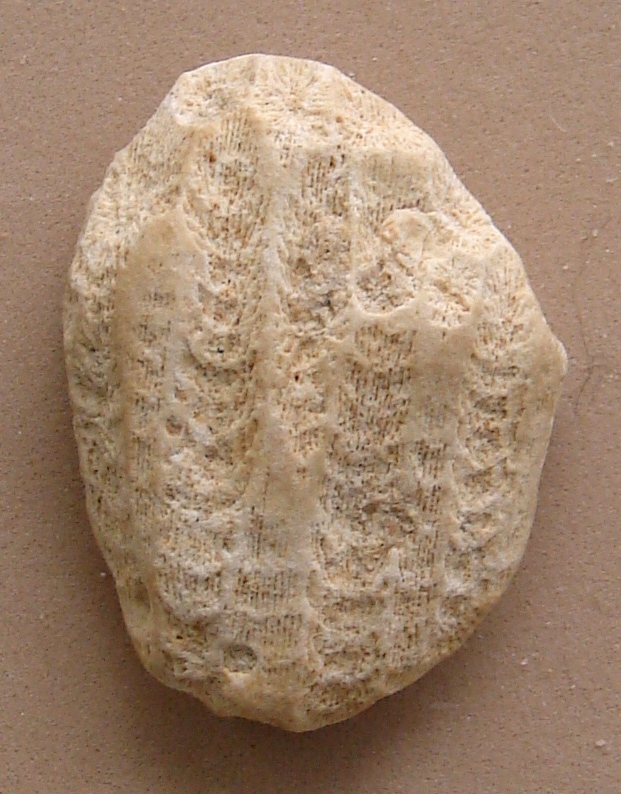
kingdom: Animalia
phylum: Cnidaria
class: Anthozoa
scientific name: Anthozoa
